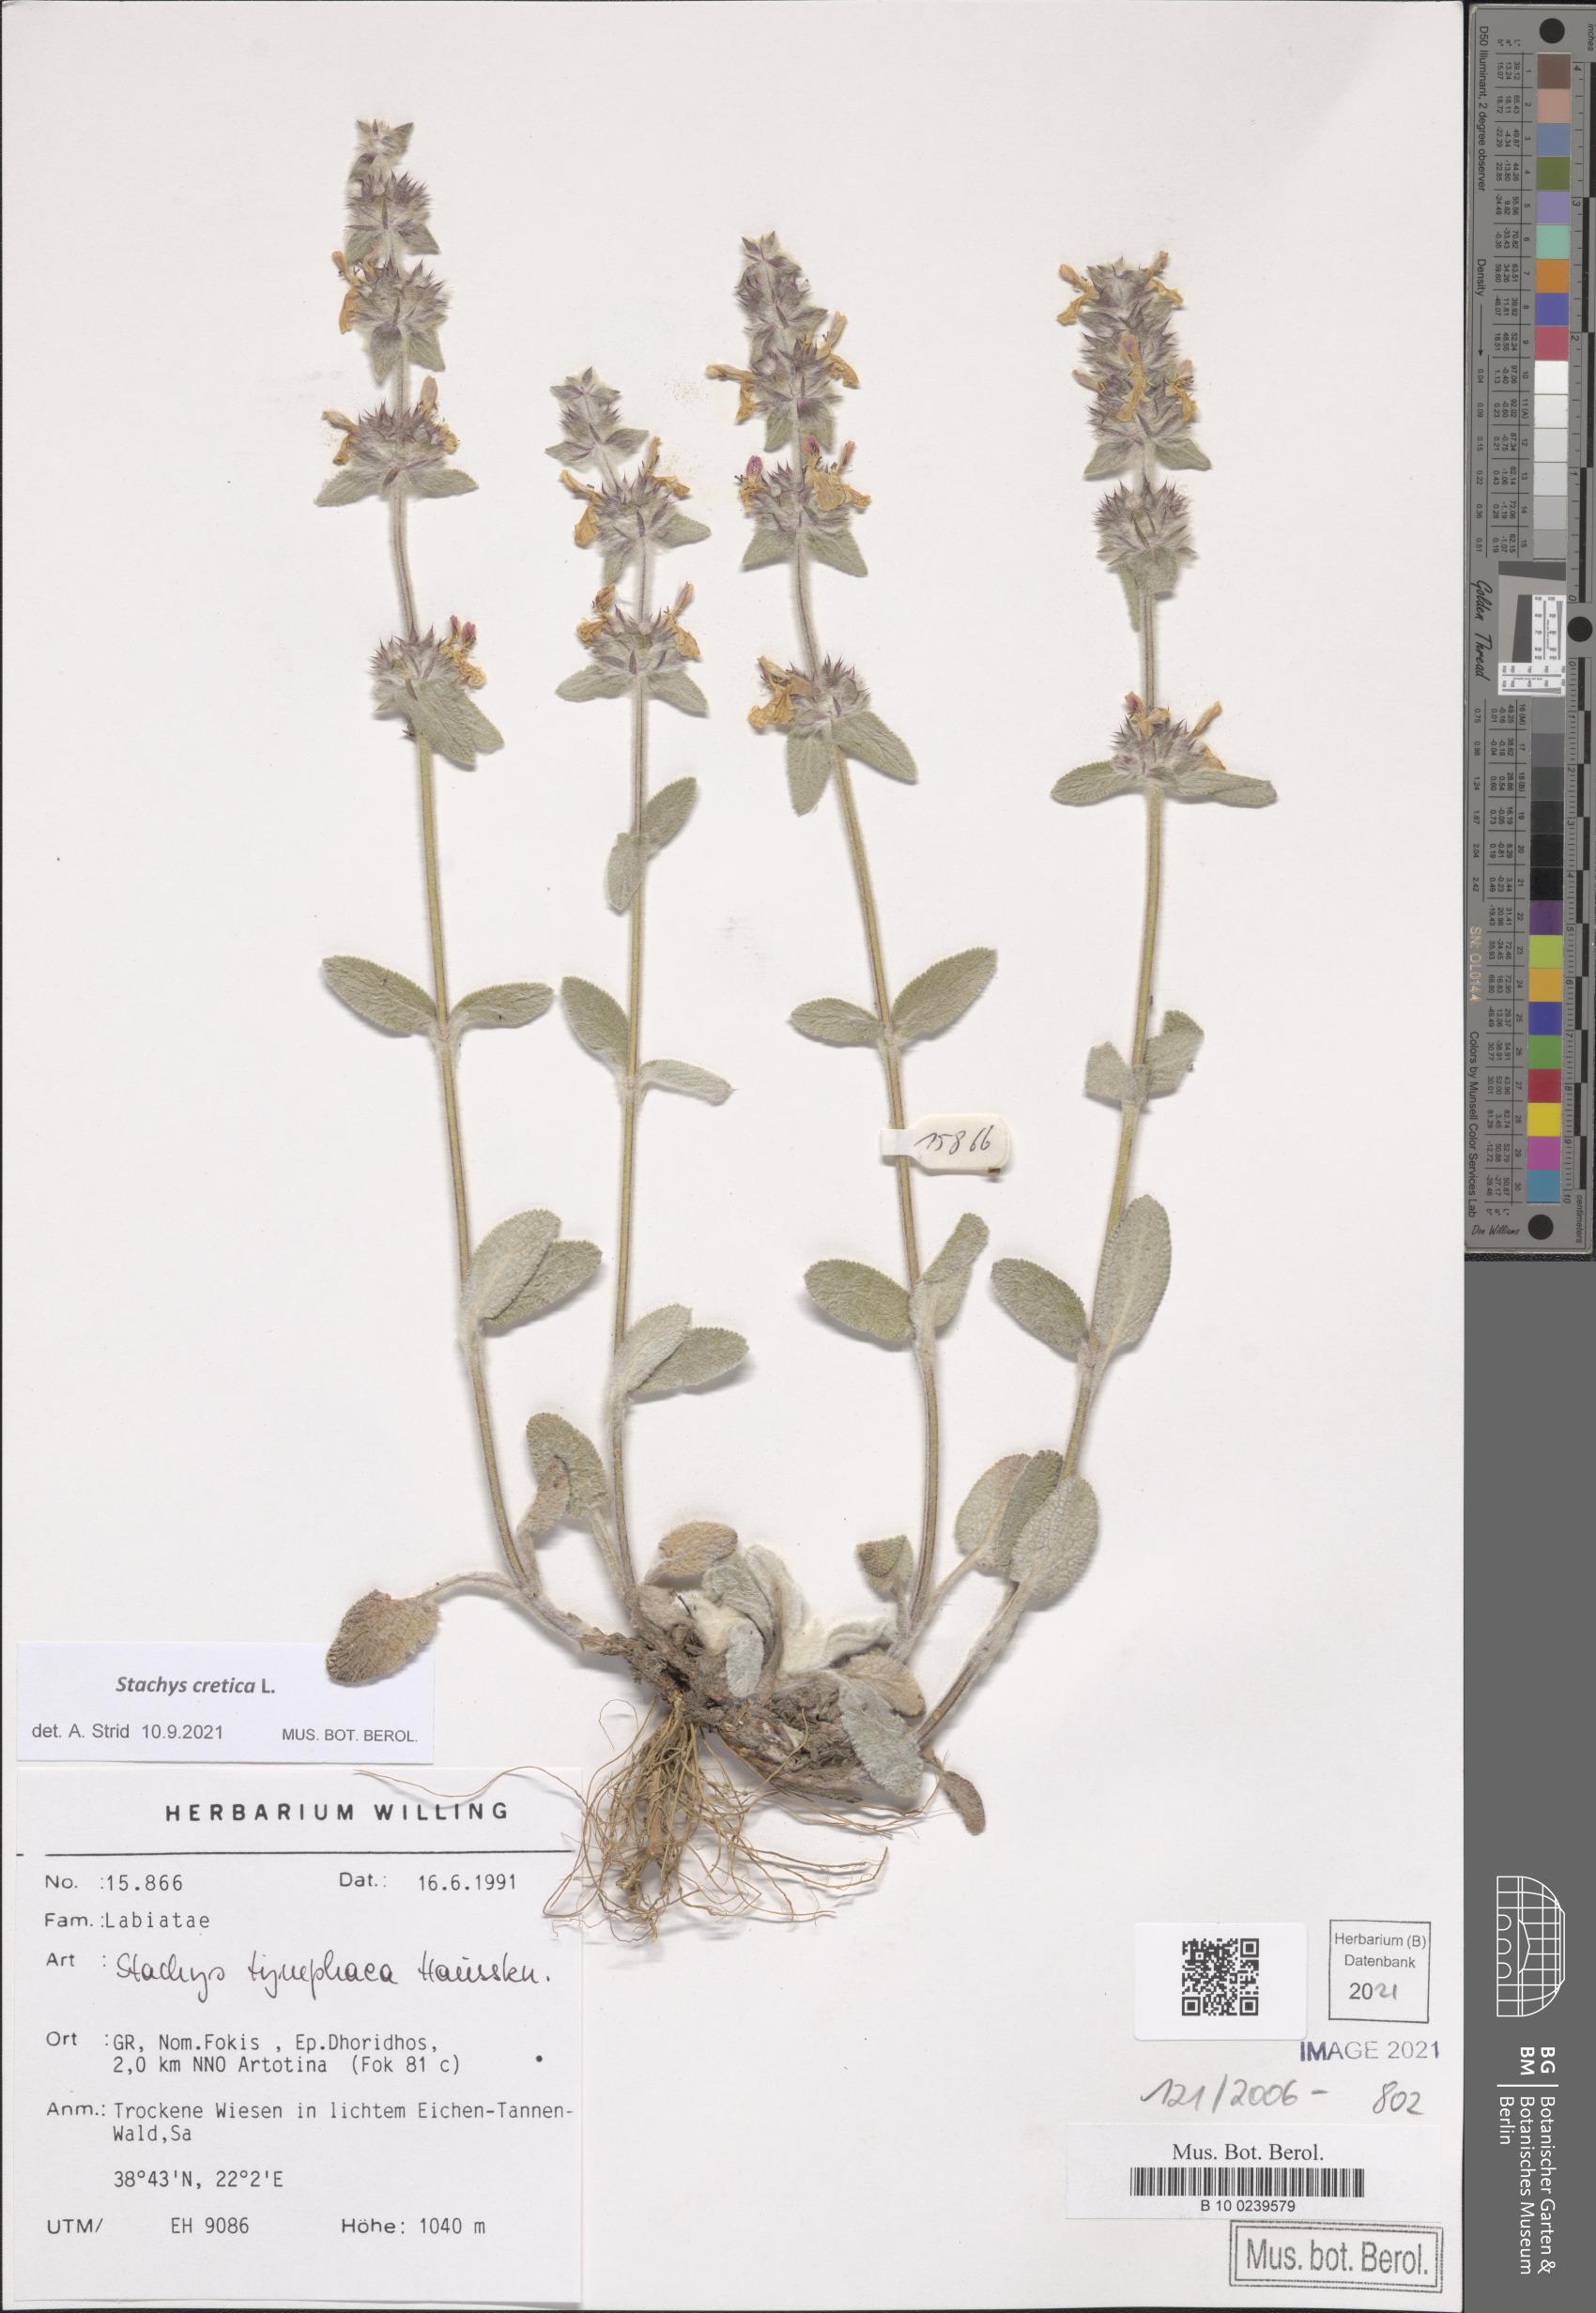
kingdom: Plantae
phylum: Tracheophyta
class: Magnoliopsida
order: Lamiales
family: Lamiaceae
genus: Stachys
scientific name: Stachys cretica
